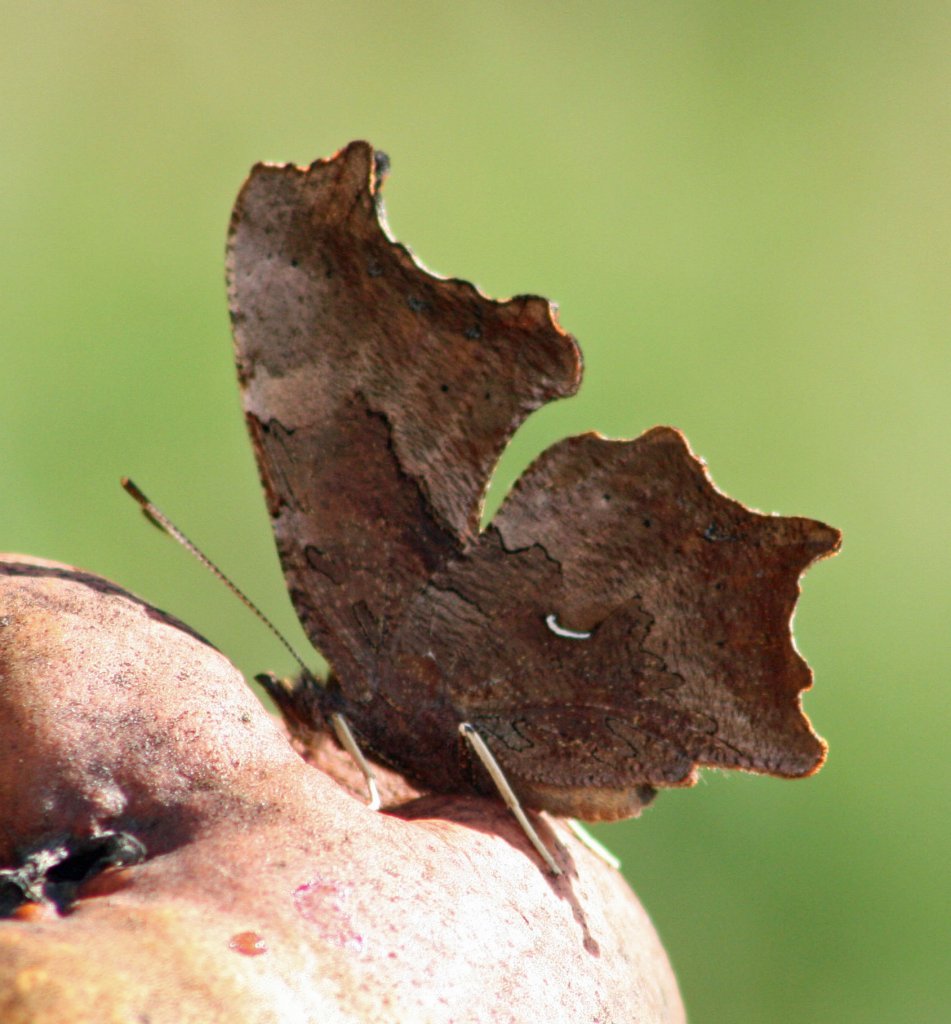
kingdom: Animalia
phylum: Arthropoda
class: Insecta
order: Lepidoptera
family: Nymphalidae
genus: Polygonia
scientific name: Polygonia progne
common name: Gray Comma
